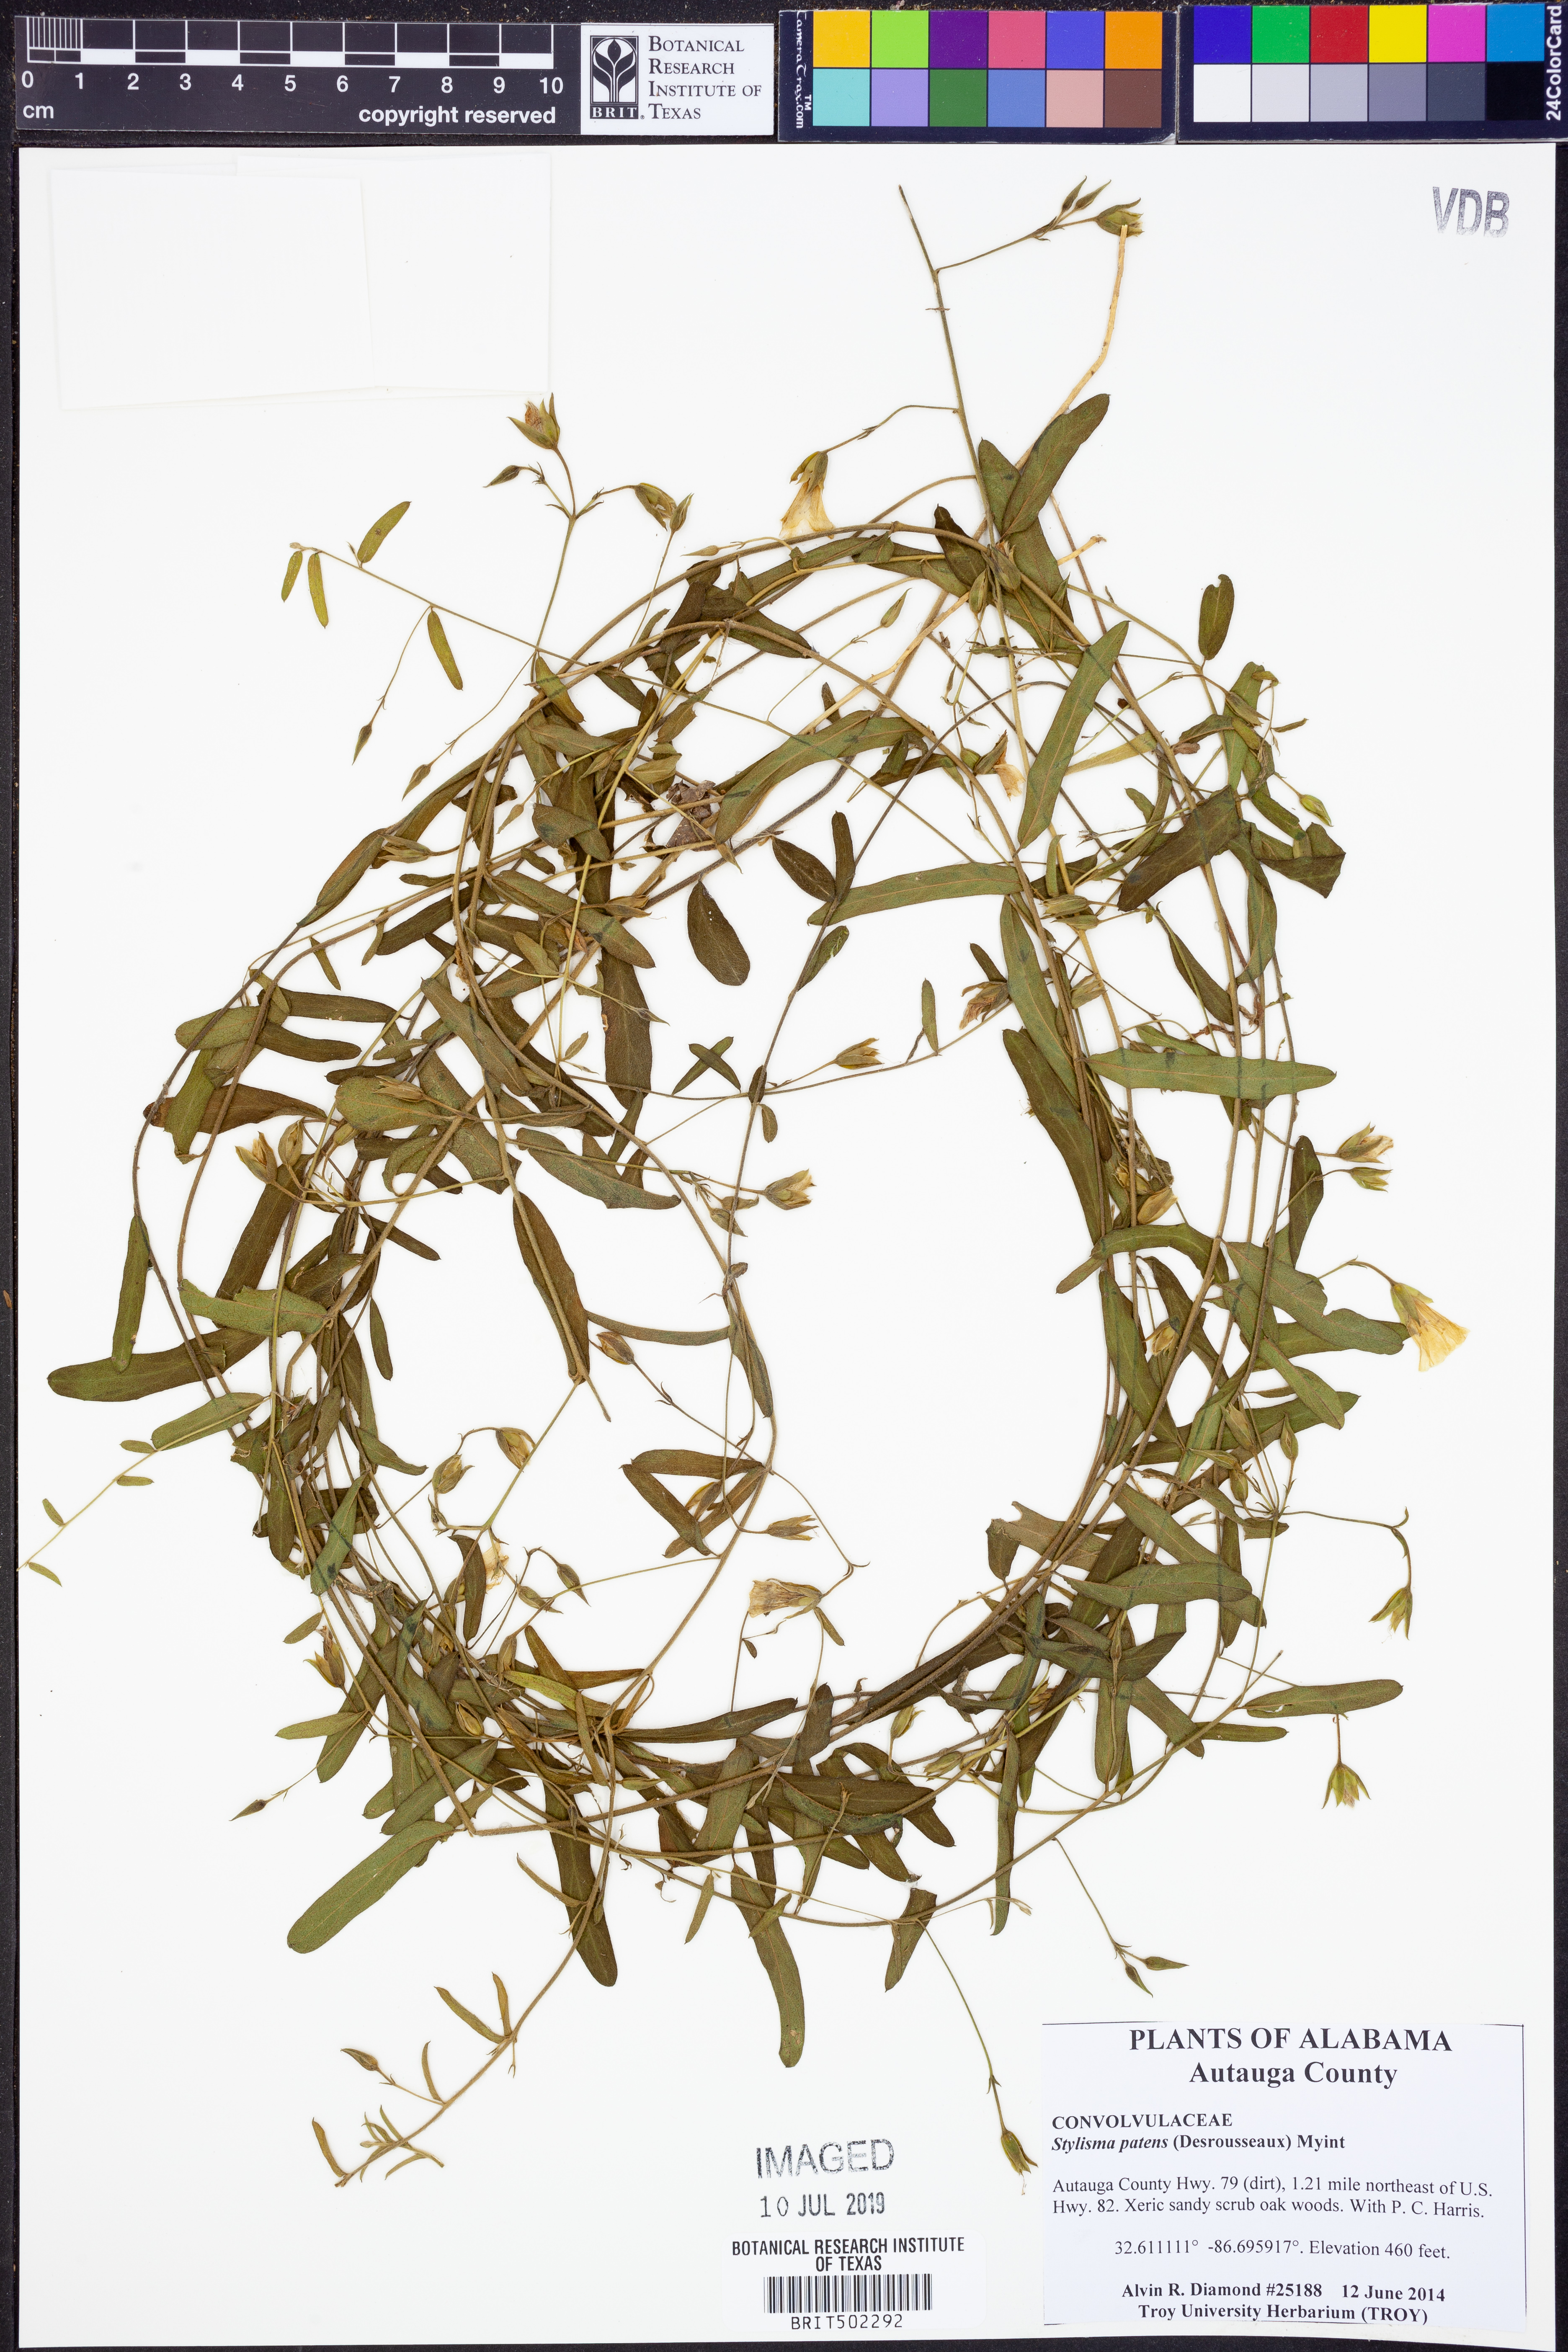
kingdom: Plantae
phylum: Tracheophyta
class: Magnoliopsida
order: Solanales
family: Convolvulaceae
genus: Stylisma
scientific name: Stylisma patens
